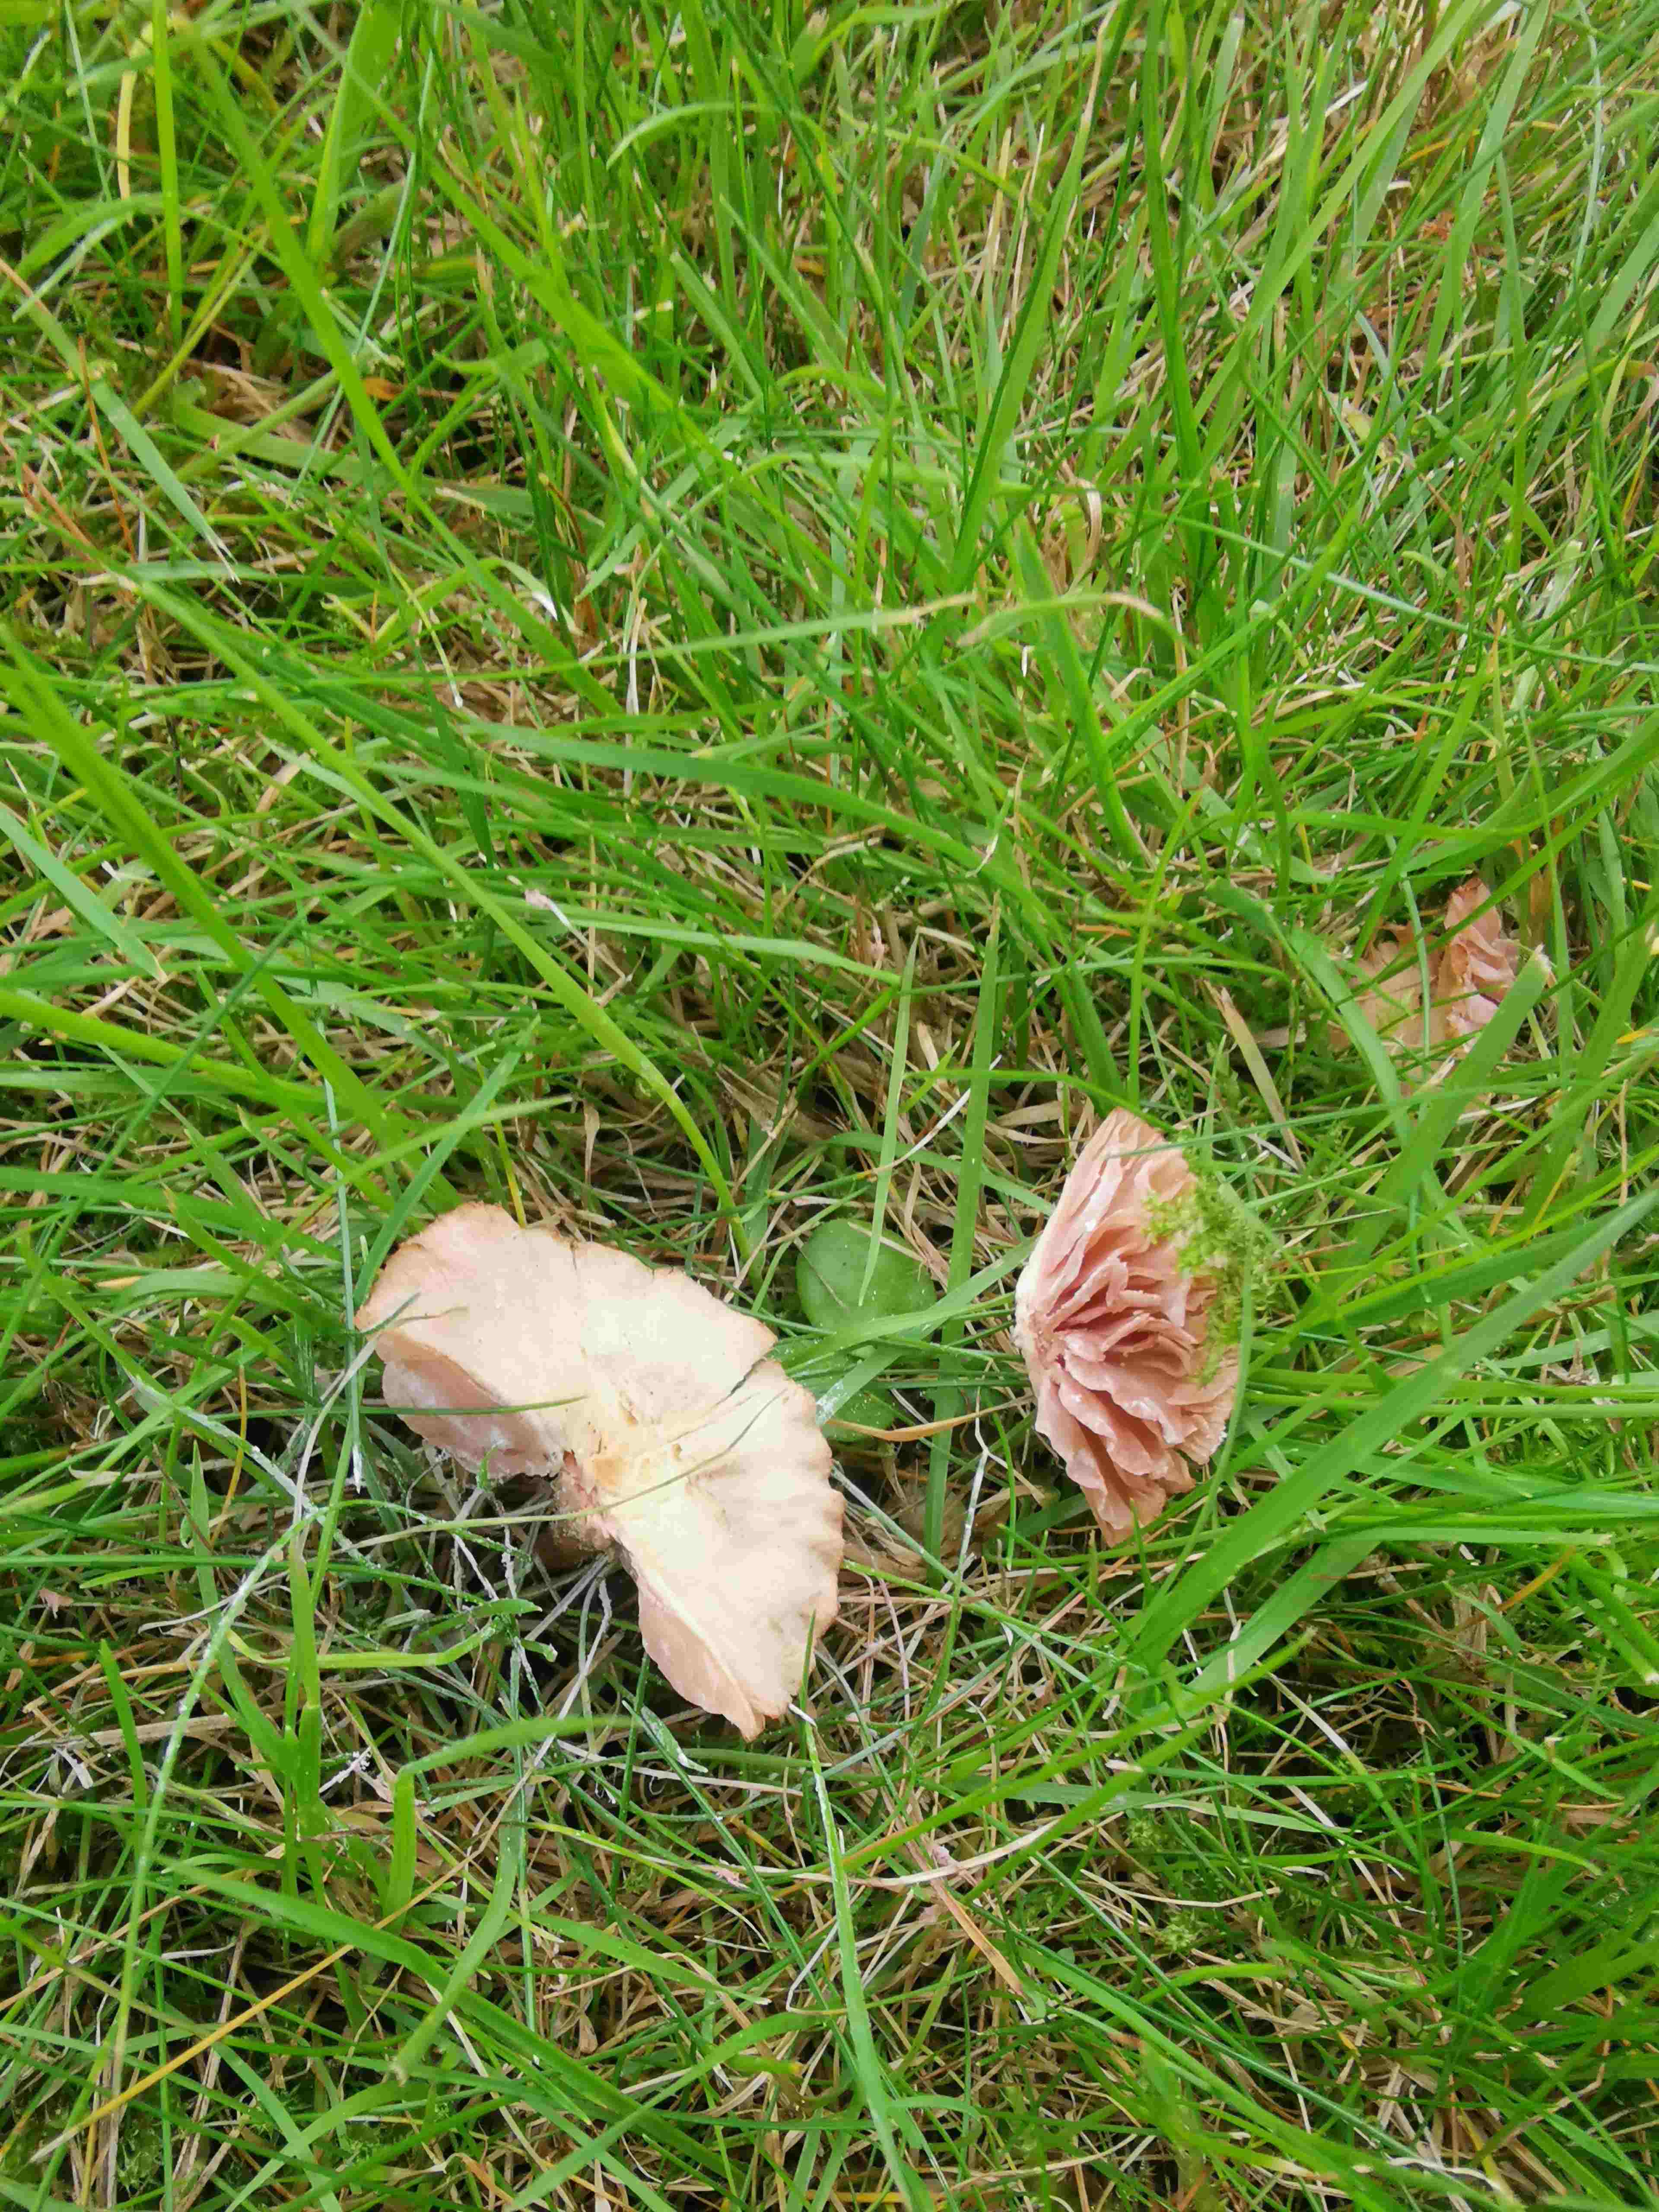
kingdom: Fungi
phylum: Basidiomycota
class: Agaricomycetes
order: Agaricales
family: Hydnangiaceae
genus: Laccaria
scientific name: Laccaria laccata
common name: rød ametysthat
